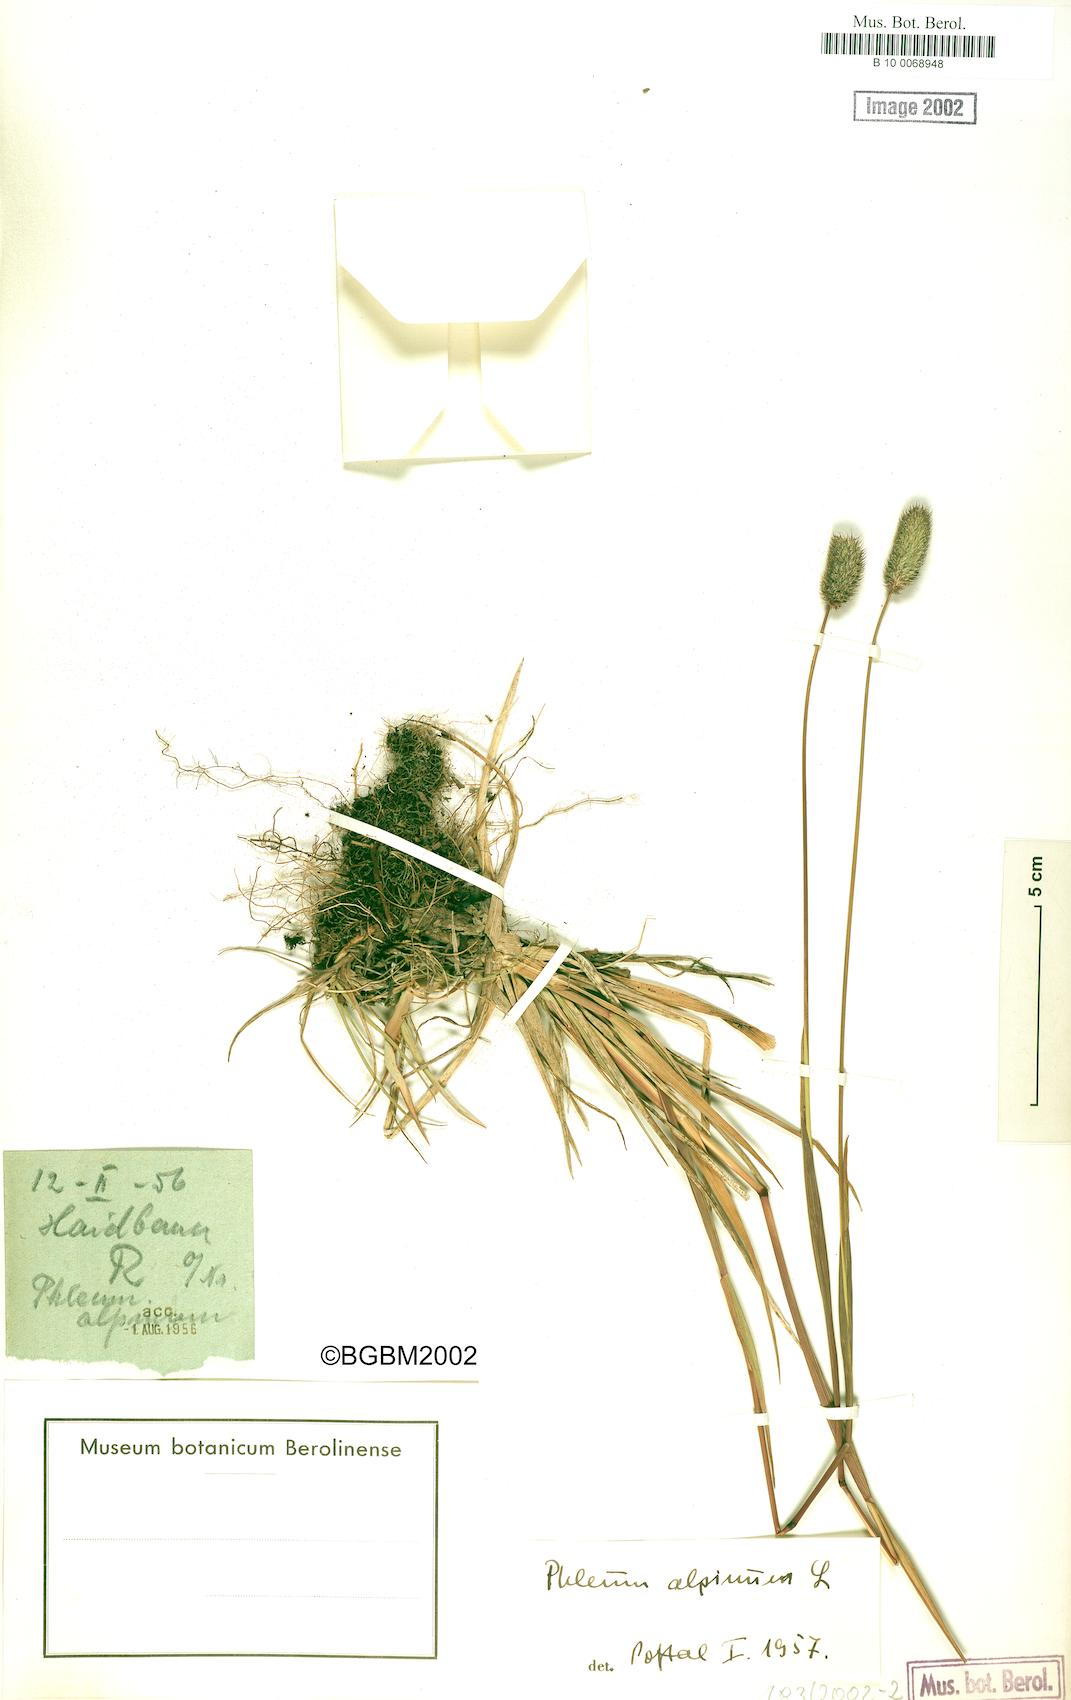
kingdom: Plantae
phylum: Tracheophyta
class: Liliopsida
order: Poales
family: Poaceae
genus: Phleum
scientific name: Phleum alpinum
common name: Alpine cat's-tail
